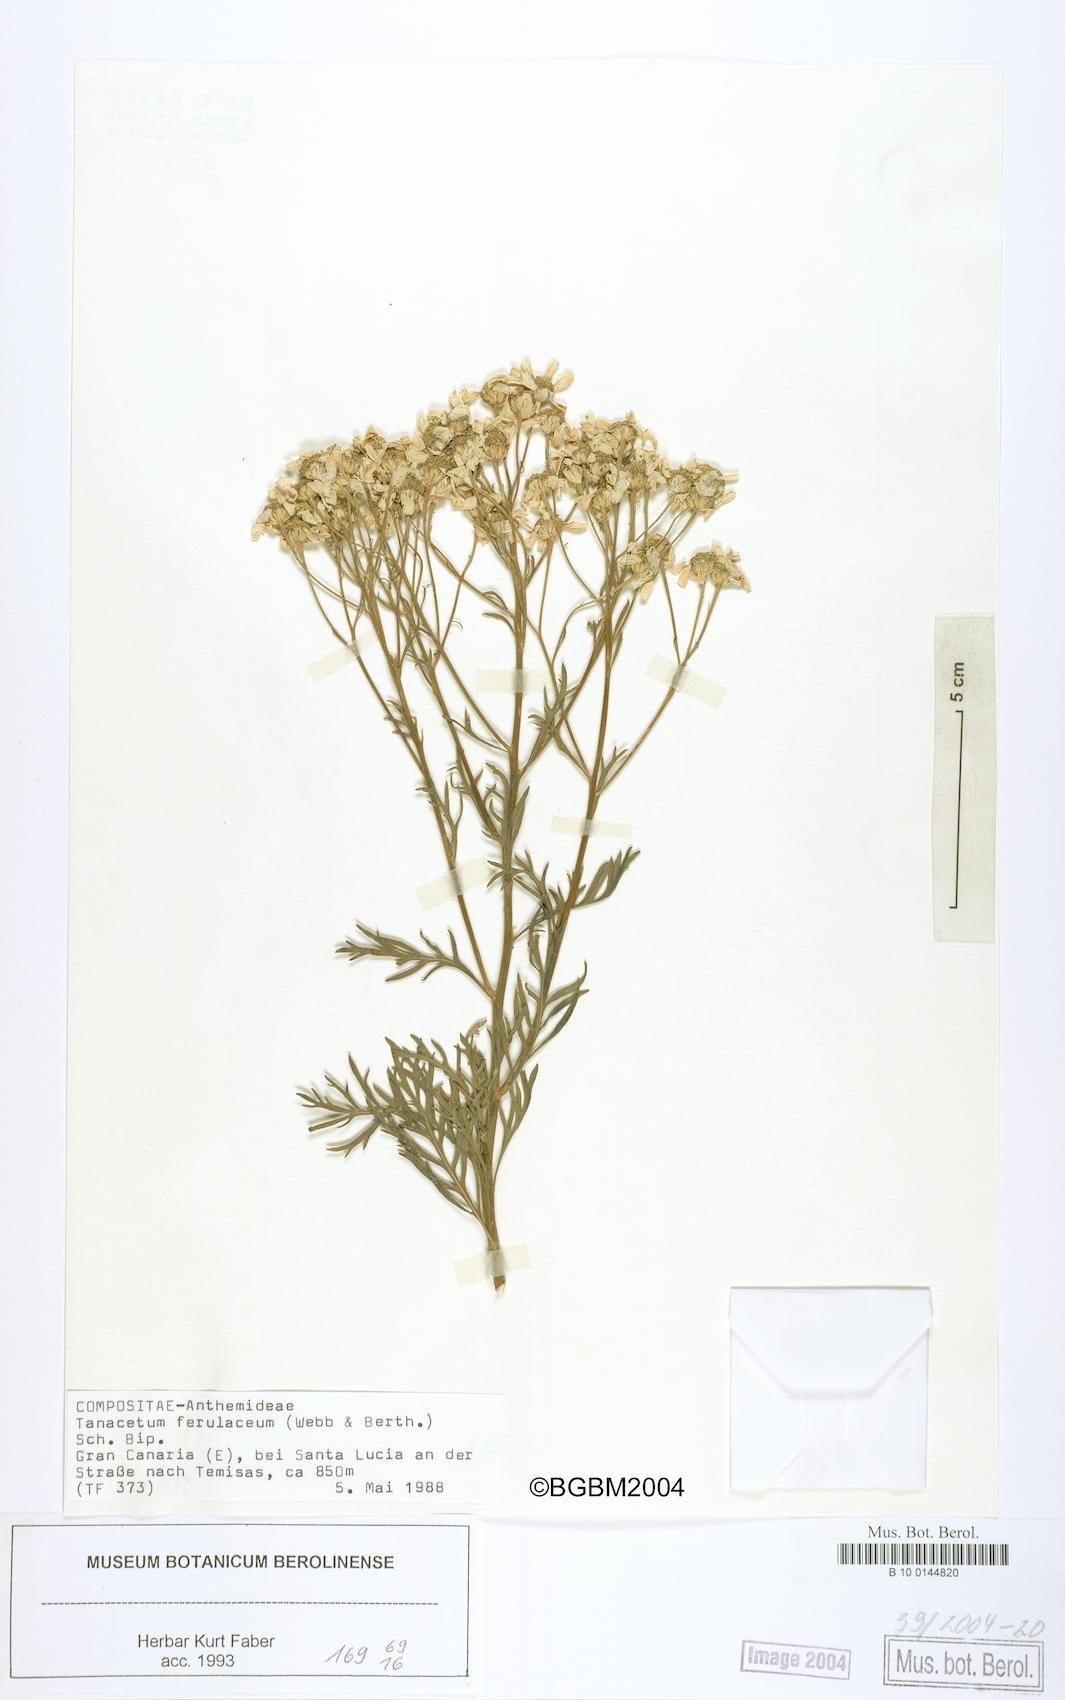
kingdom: Plantae
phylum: Tracheophyta
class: Magnoliopsida
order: Asterales
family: Asteraceae
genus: Gonospermum
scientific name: Gonospermum ferulaceum
